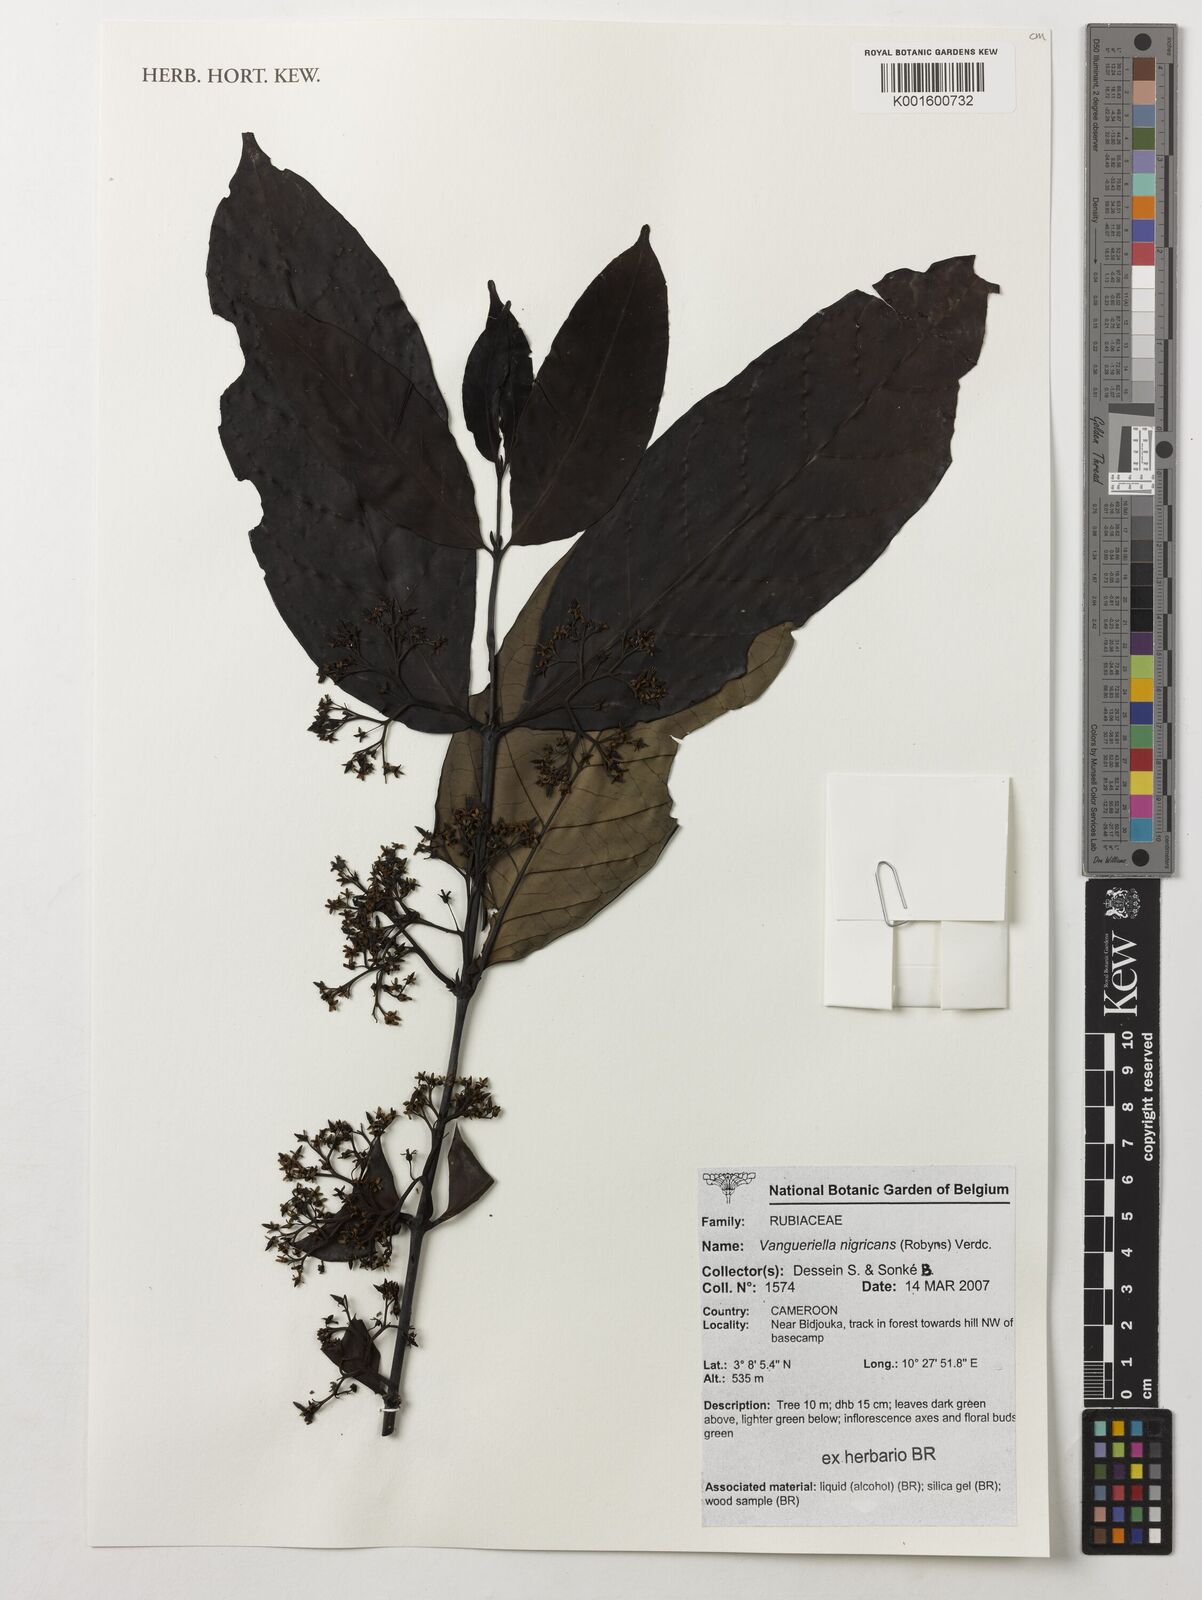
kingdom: Plantae
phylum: Tracheophyta
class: Magnoliopsida
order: Gentianales
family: Rubiaceae
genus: Vangueriella
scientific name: Vangueriella nigricans
